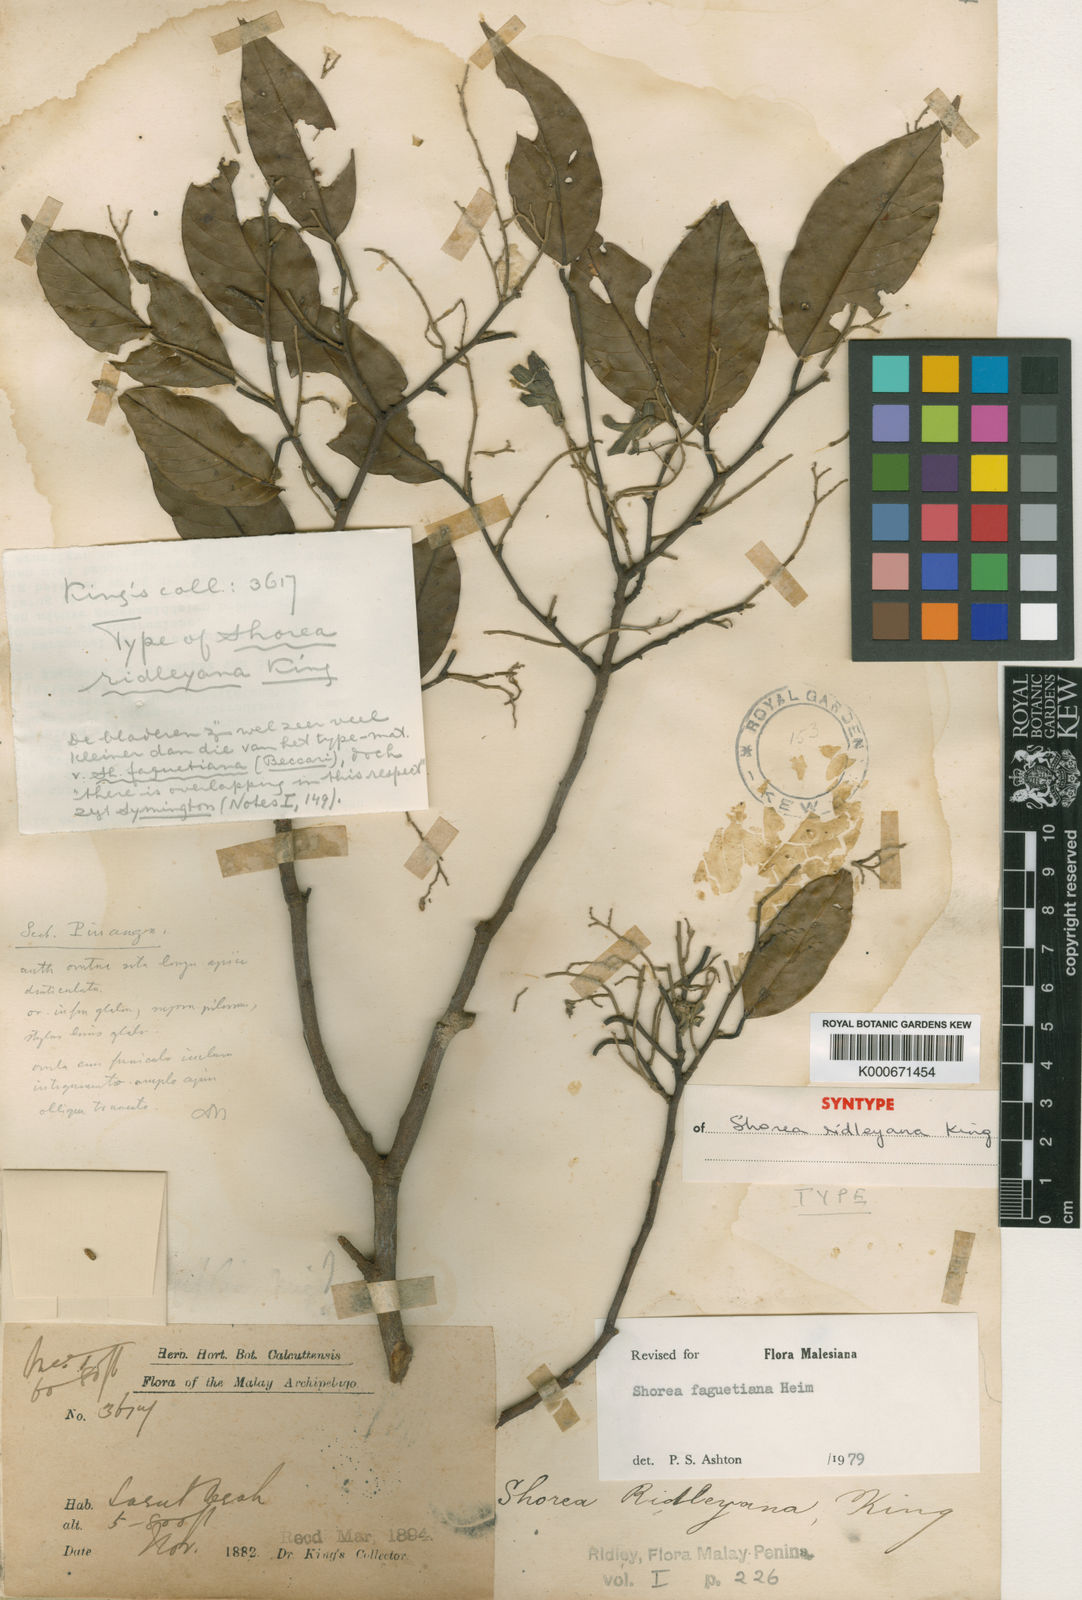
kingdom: Plantae
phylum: Tracheophyta
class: Magnoliopsida
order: Malvales
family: Dipterocarpaceae
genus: Shorea
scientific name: Shorea faguetiana
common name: Yellow meranti
